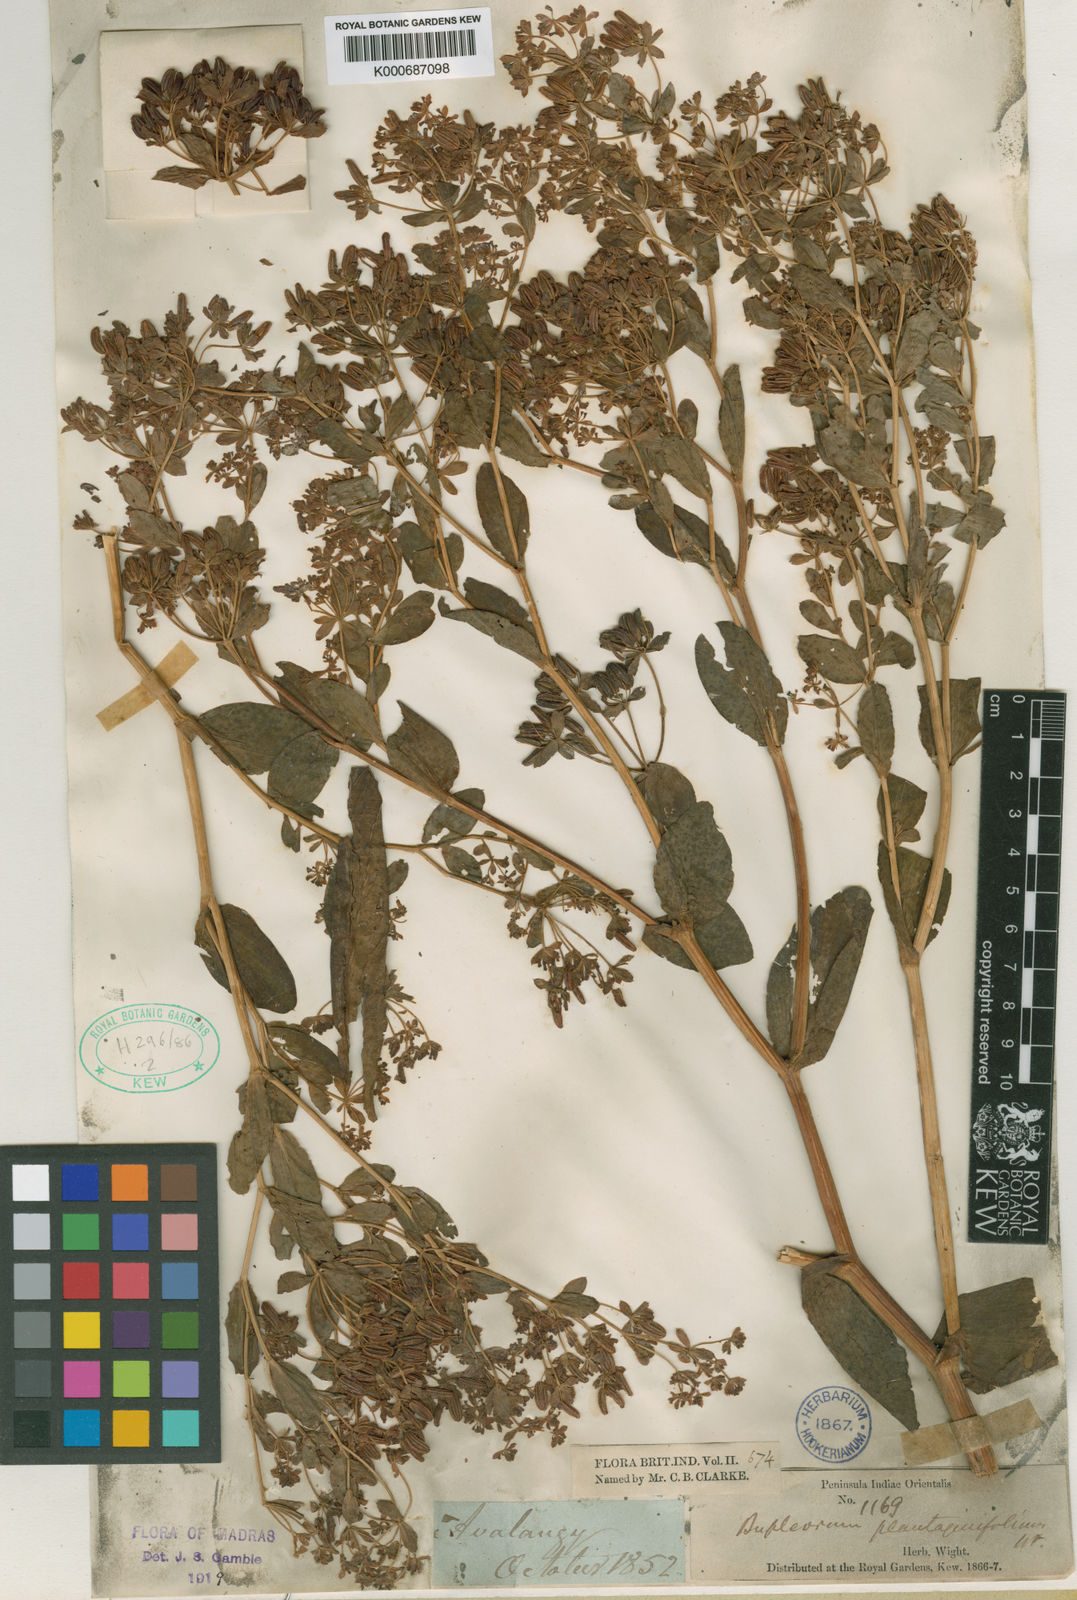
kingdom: Plantae
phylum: Tracheophyta
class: Magnoliopsida
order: Apiales
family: Apiaceae
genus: Bupleurum
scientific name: Bupleurum plantaginifolium
